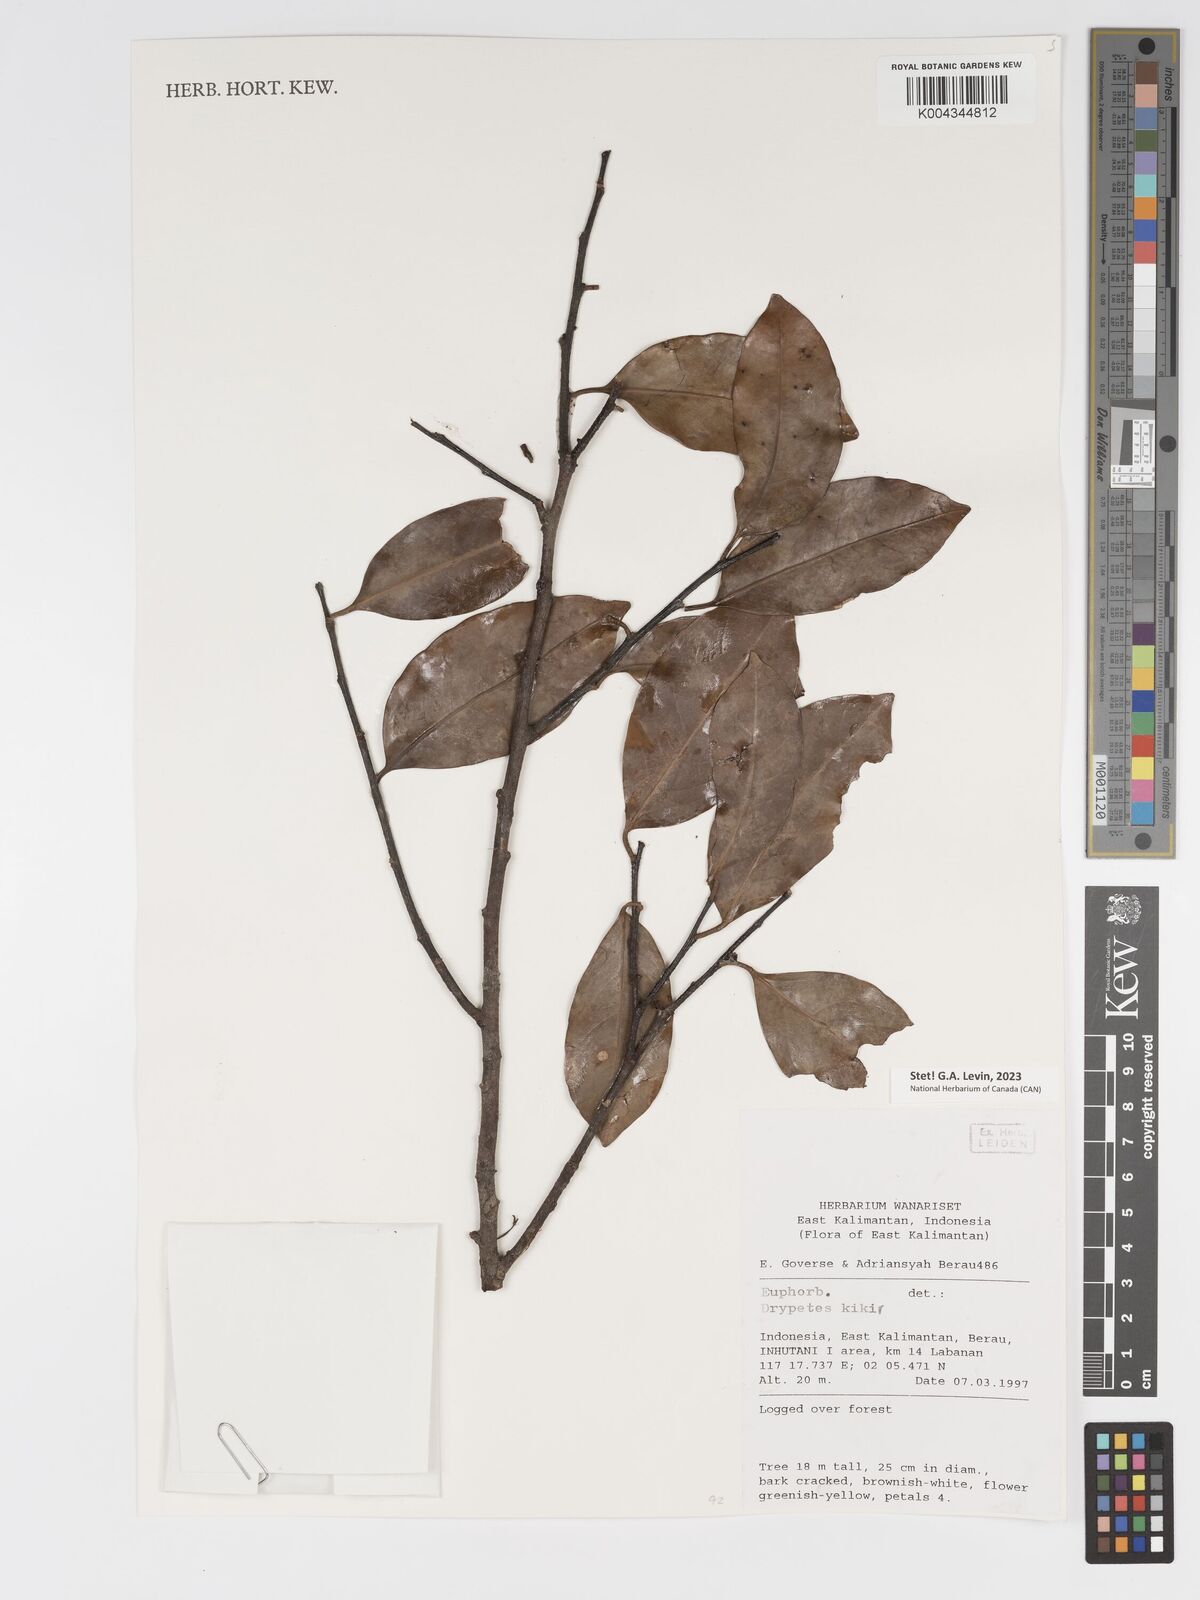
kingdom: Plantae
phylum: Tracheophyta
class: Magnoliopsida
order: Malpighiales
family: Putranjivaceae
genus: Drypetes
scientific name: Drypetes kikir
